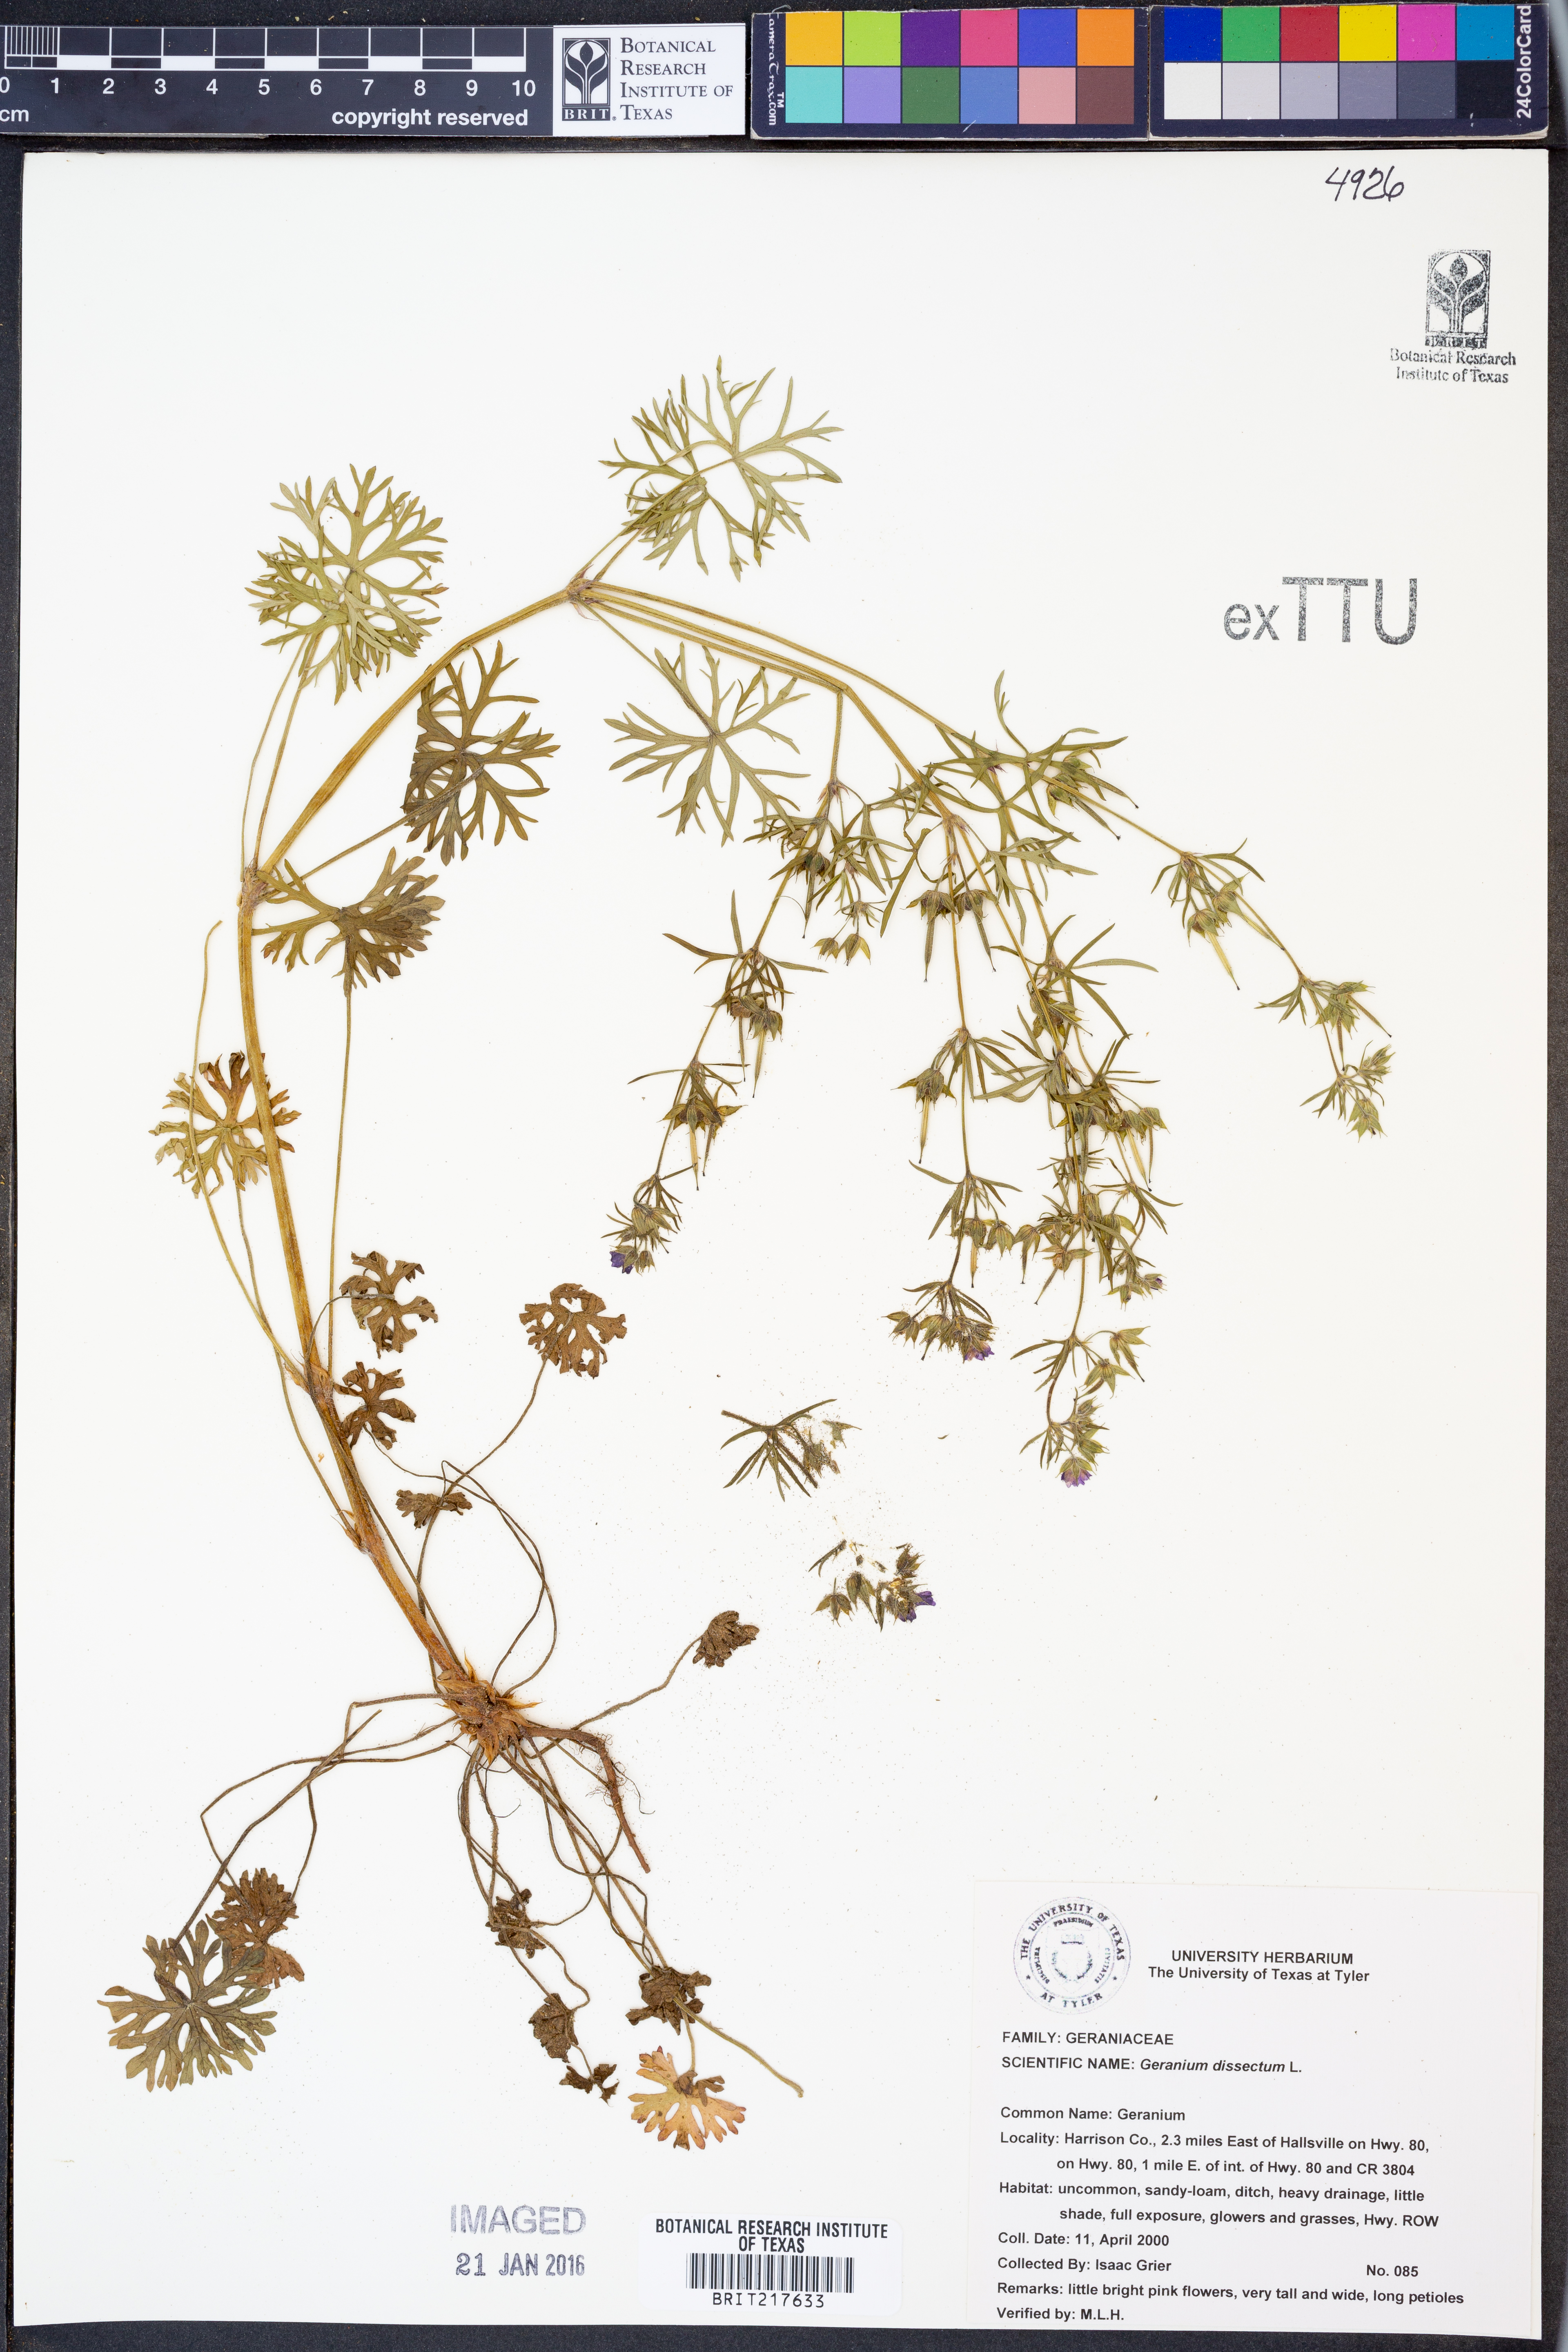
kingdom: Plantae
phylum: Tracheophyta
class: Magnoliopsida
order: Geraniales
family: Geraniaceae
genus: Geranium
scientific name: Geranium dissectum
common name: Cut-leaved crane's-bill
